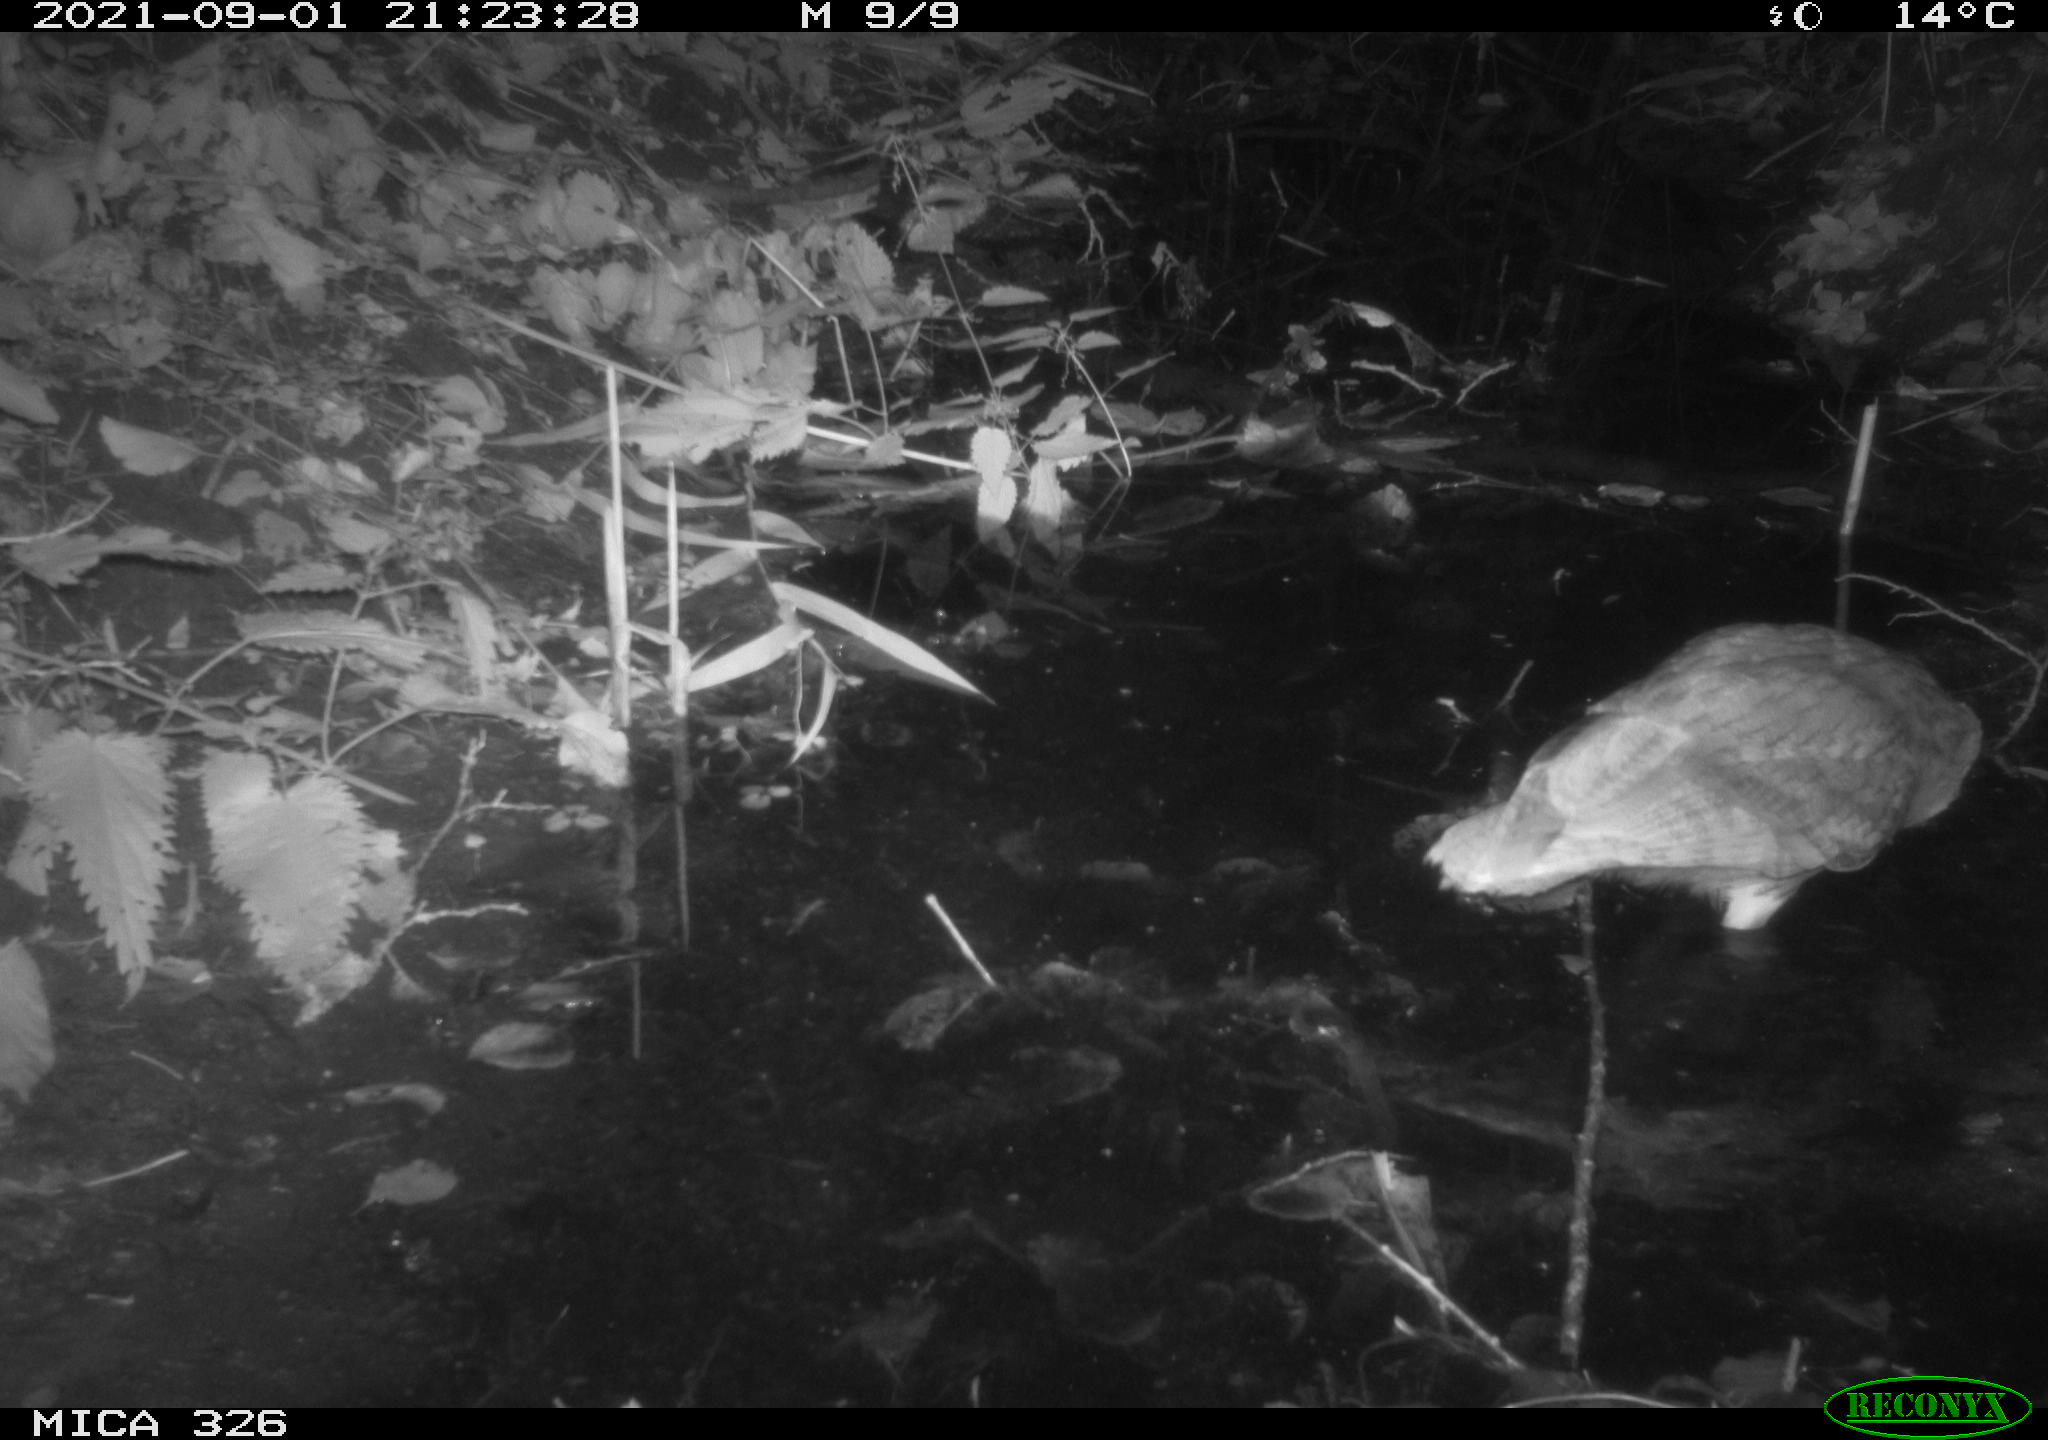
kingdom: Animalia
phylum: Chordata
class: Aves
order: Strigiformes
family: Strigidae
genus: Strix
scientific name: Strix aluco
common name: Tawny owl
